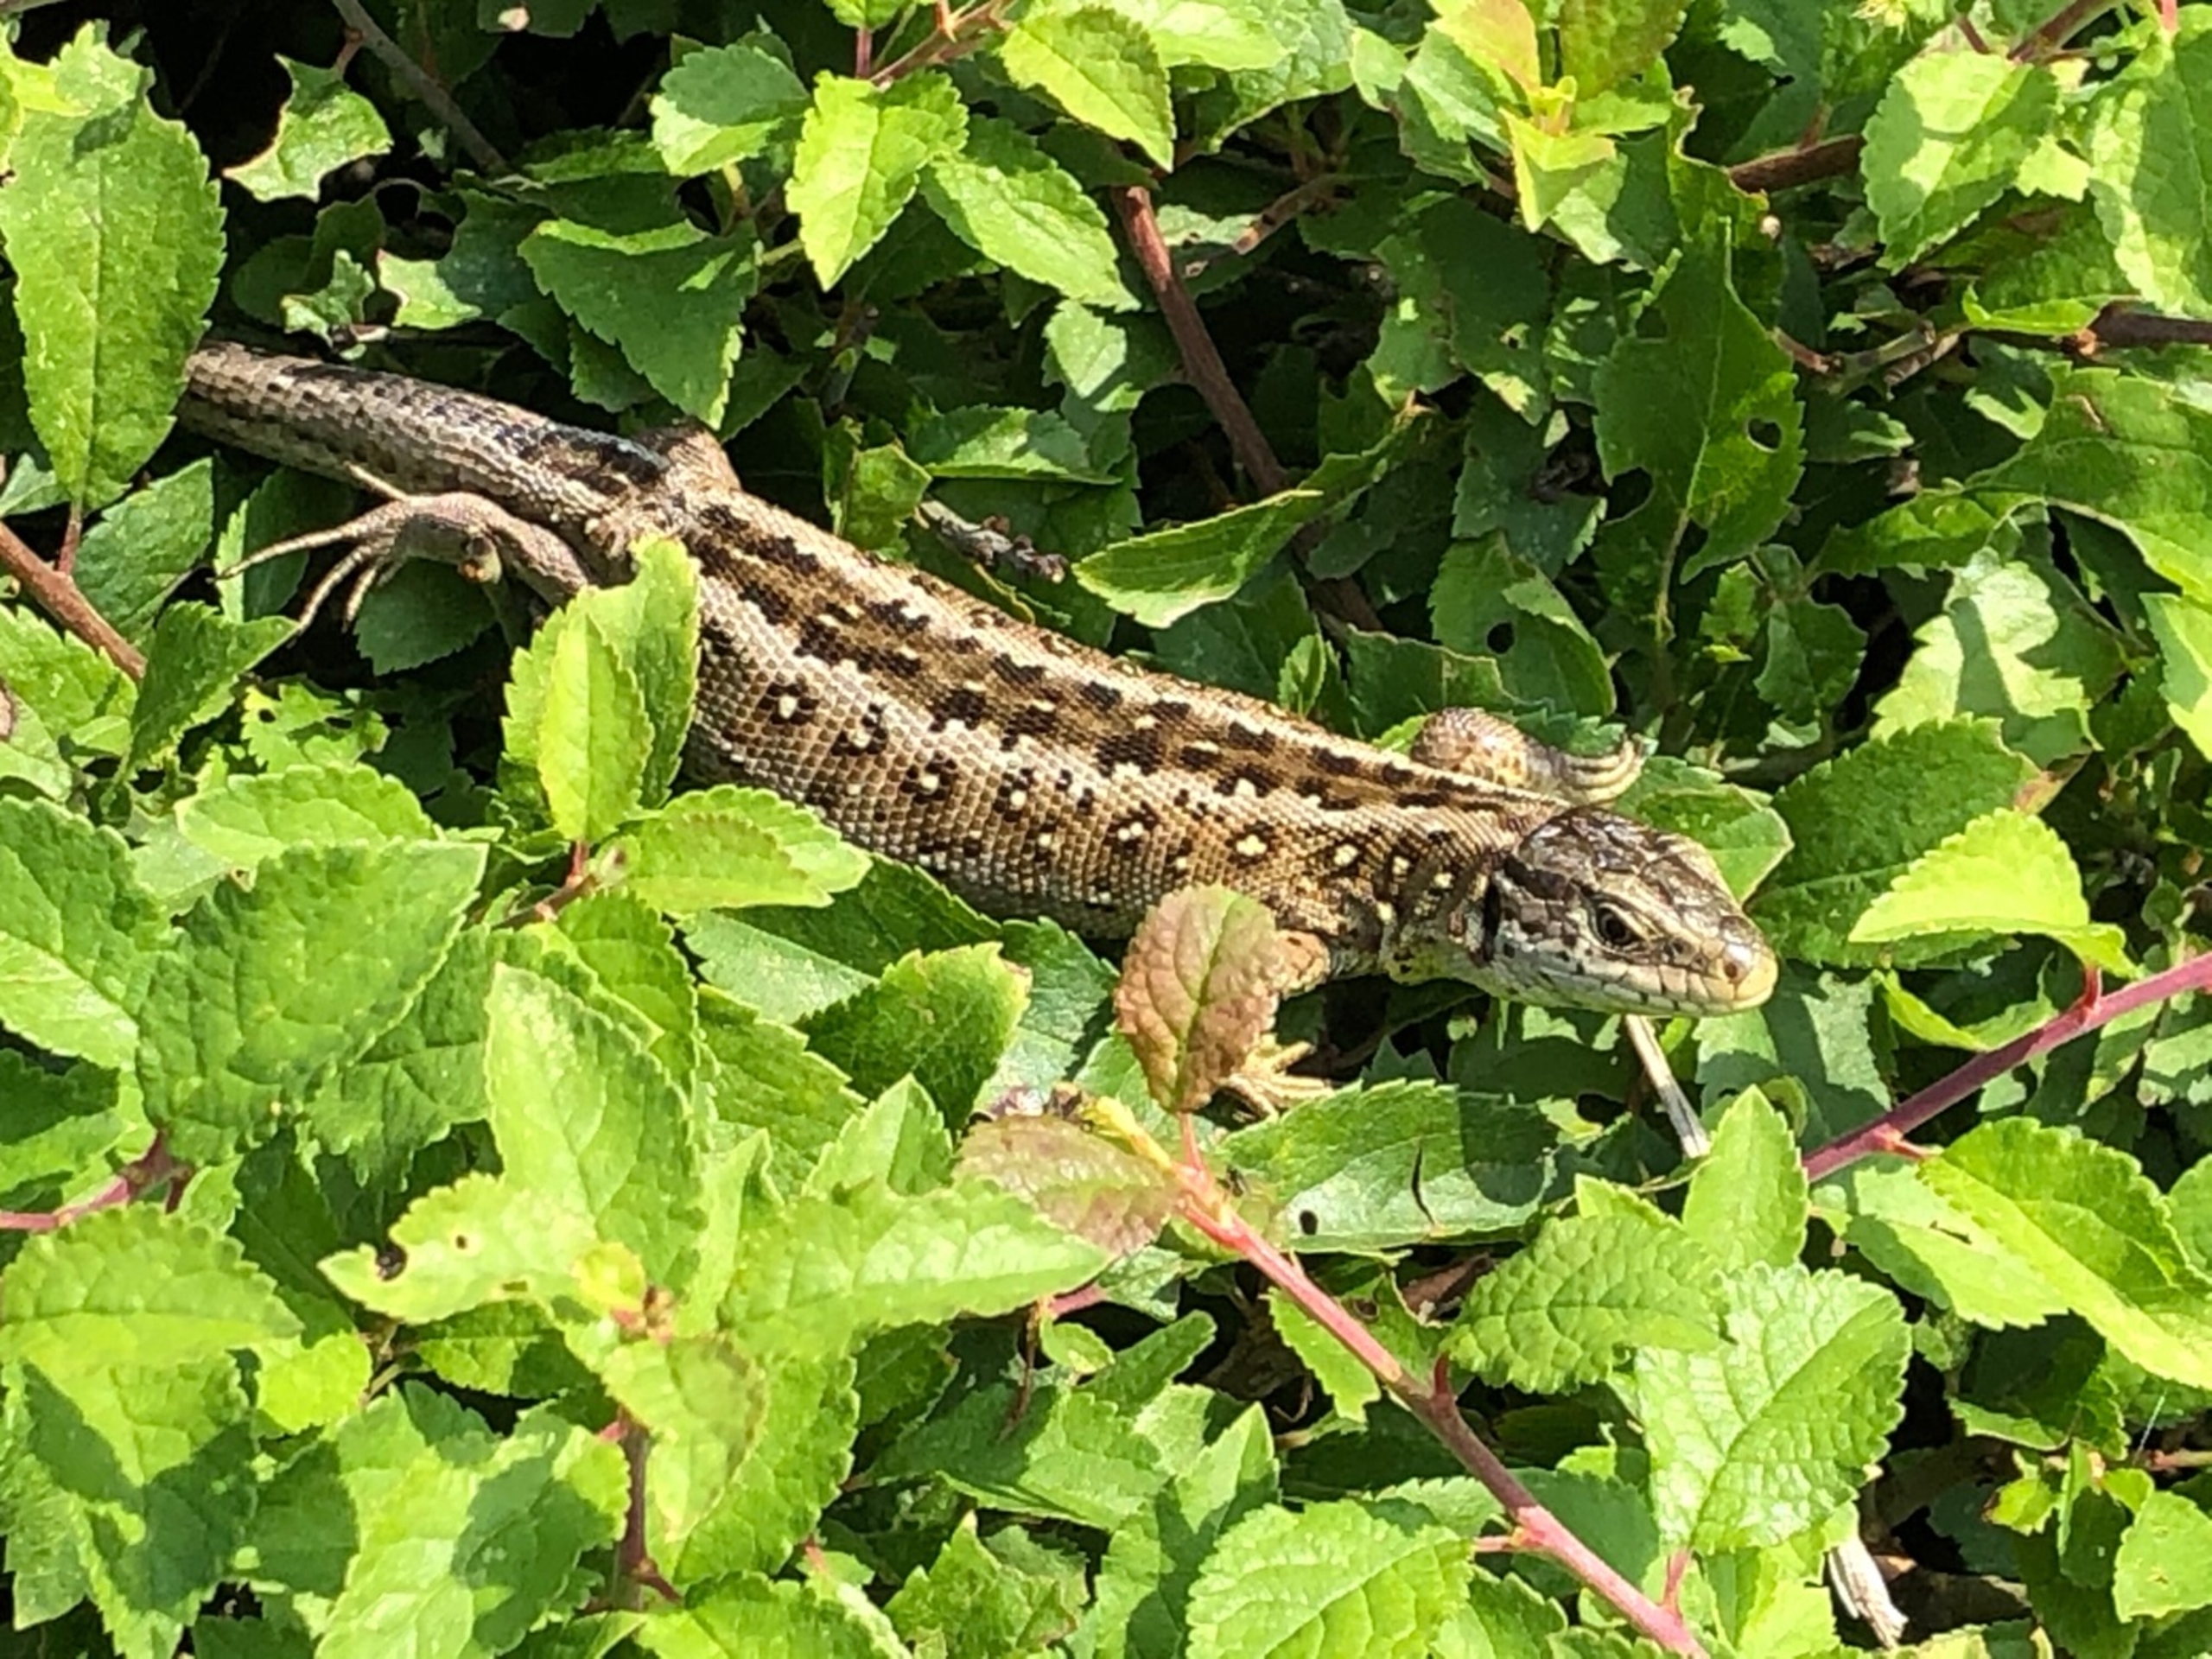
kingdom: Animalia
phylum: Chordata
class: Squamata
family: Lacertidae
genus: Lacerta
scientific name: Lacerta agilis
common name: Markfirben
